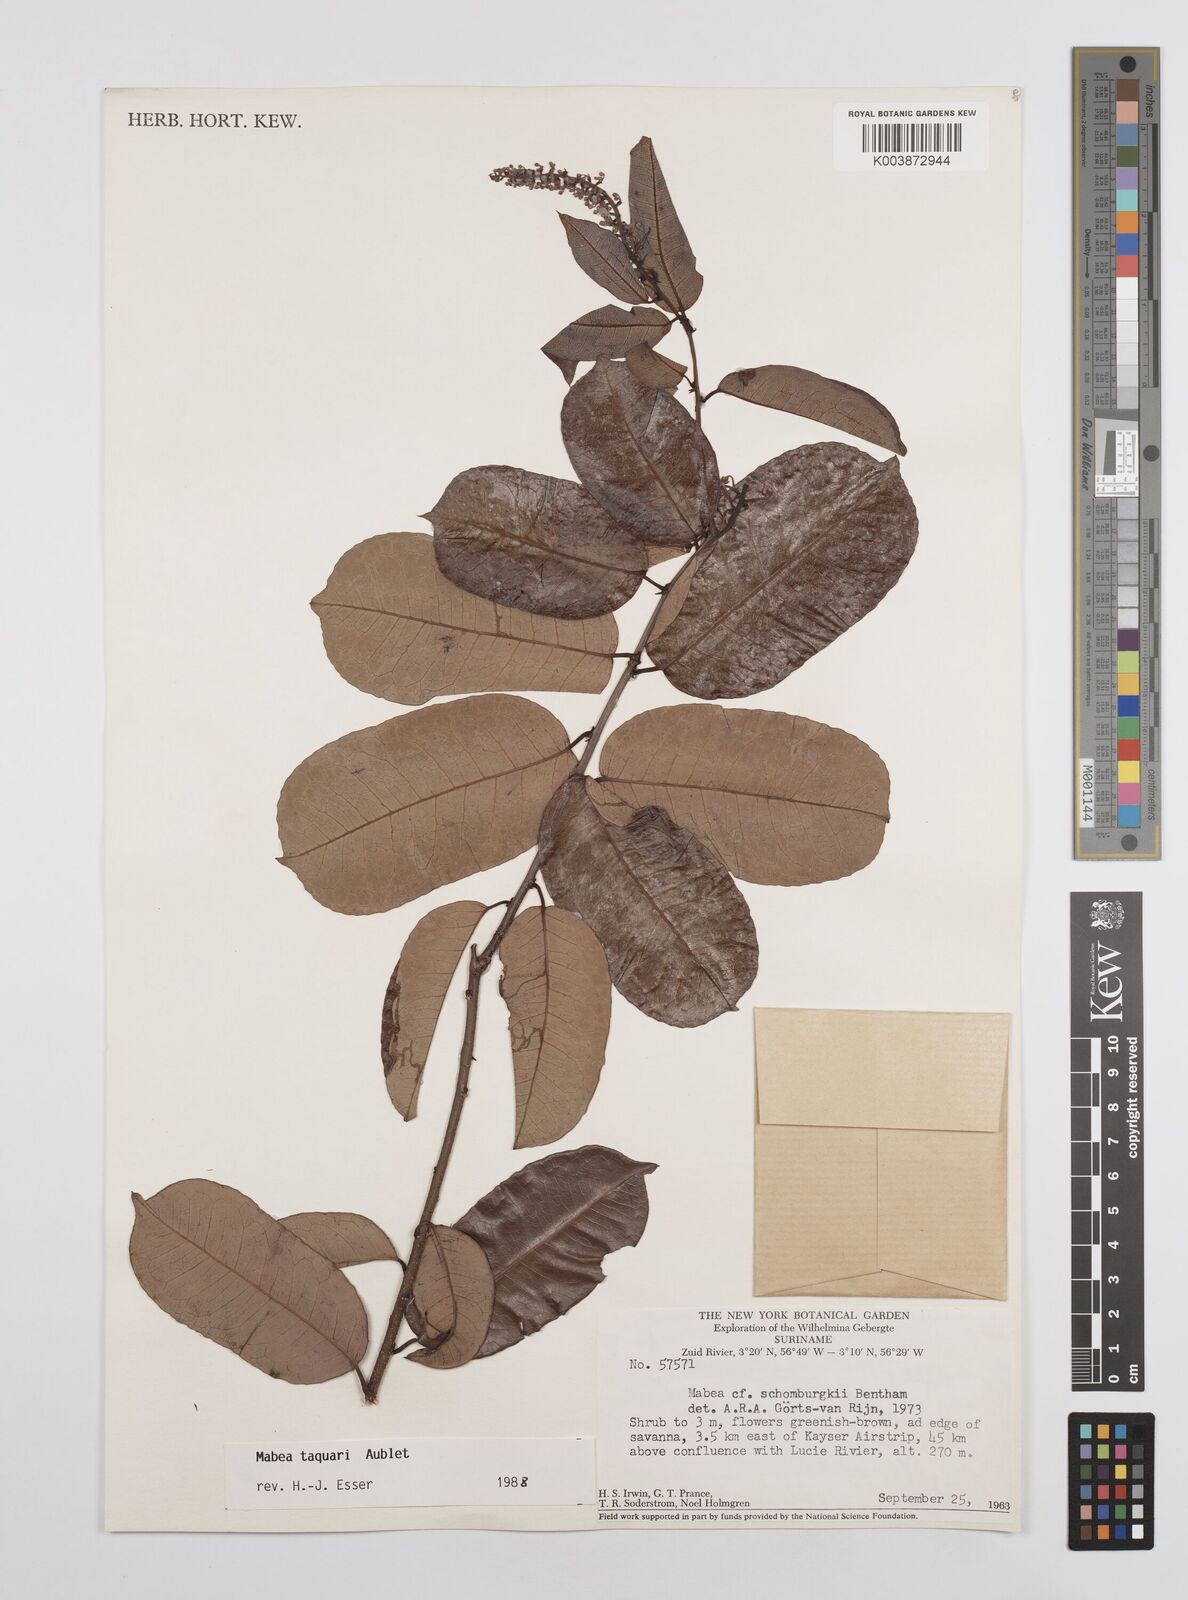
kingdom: Plantae
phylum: Tracheophyta
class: Magnoliopsida
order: Malpighiales
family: Euphorbiaceae
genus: Mabea
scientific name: Mabea taquari
